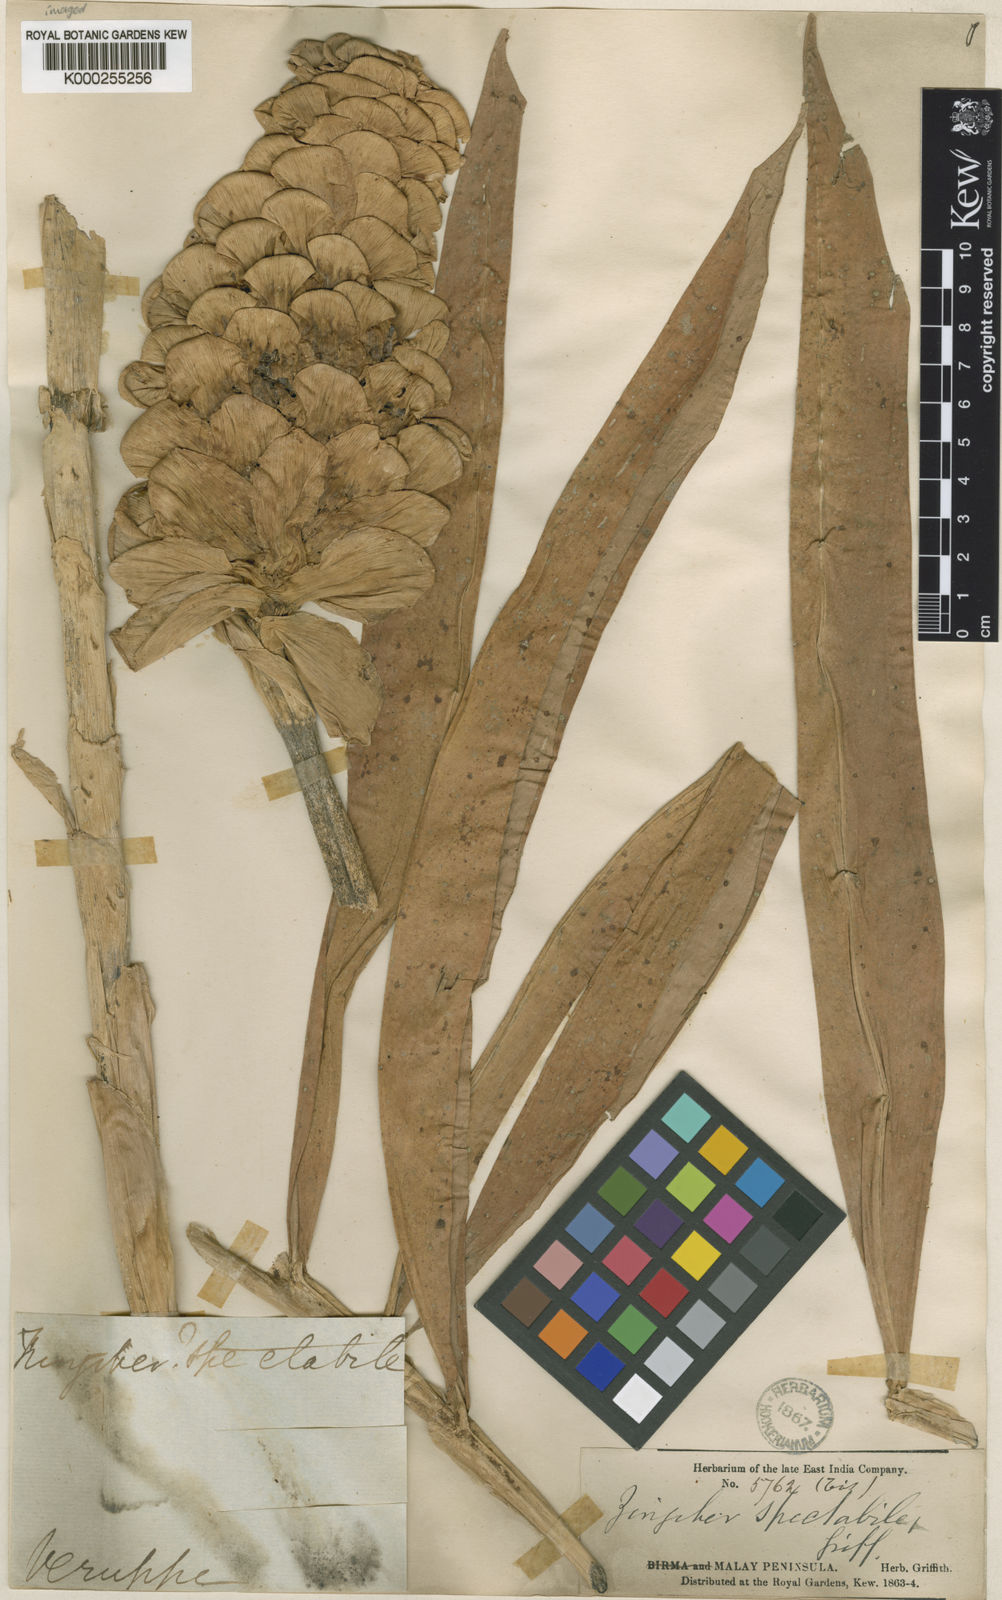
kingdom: Plantae
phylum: Tracheophyta
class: Liliopsida
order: Zingiberales
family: Zingiberaceae
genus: Zingiber
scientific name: Zingiber spectabile
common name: Beehive ginger
